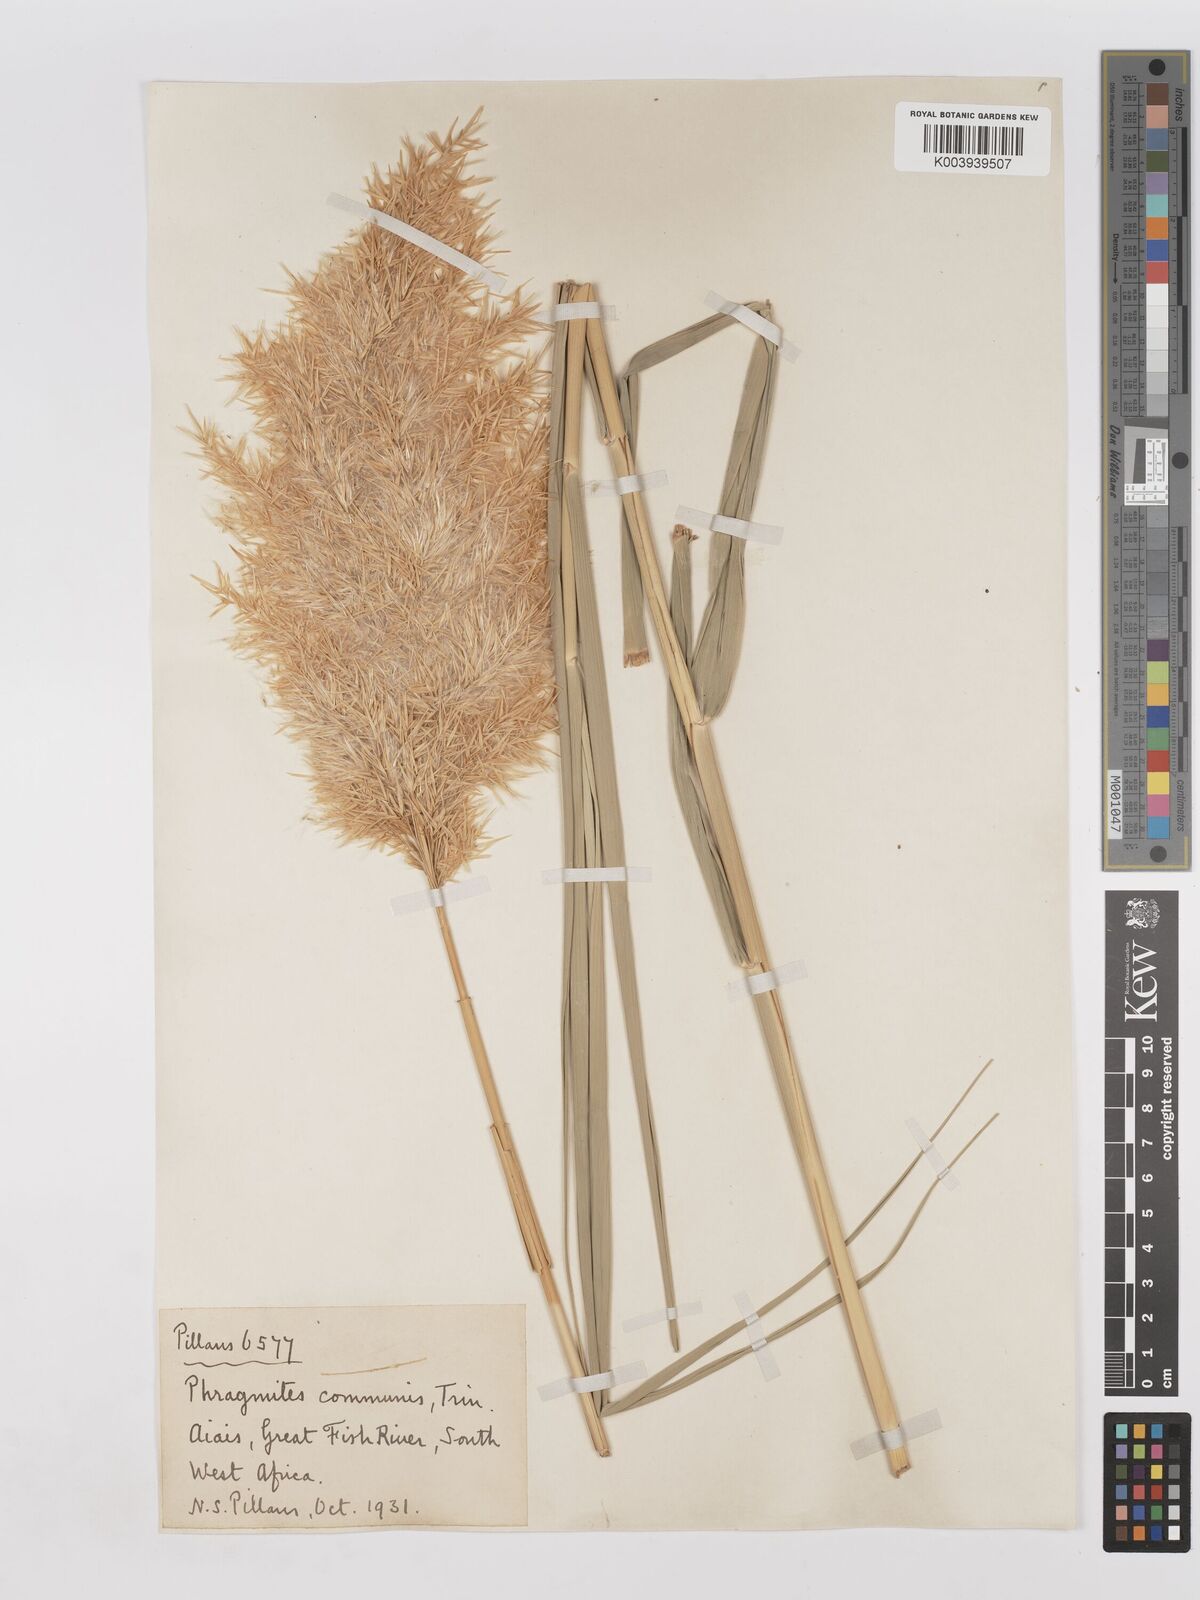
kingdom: Plantae
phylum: Tracheophyta
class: Liliopsida
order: Poales
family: Poaceae
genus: Phragmites
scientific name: Phragmites australis
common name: Common reed
